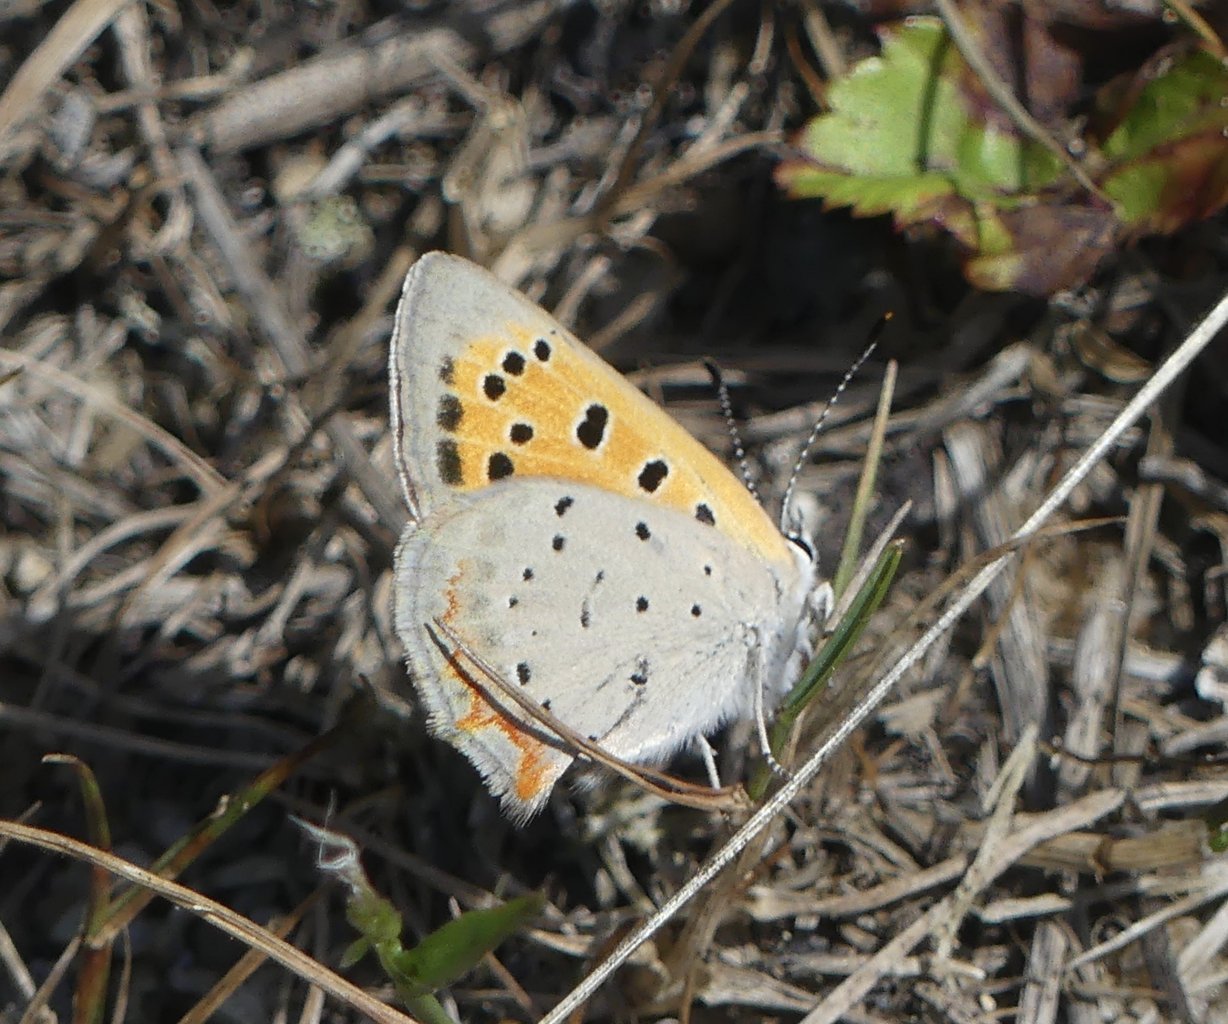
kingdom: Animalia
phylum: Arthropoda
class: Insecta
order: Lepidoptera
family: Lycaenidae
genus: Lycaena
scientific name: Lycaena phlaeas
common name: American Copper
